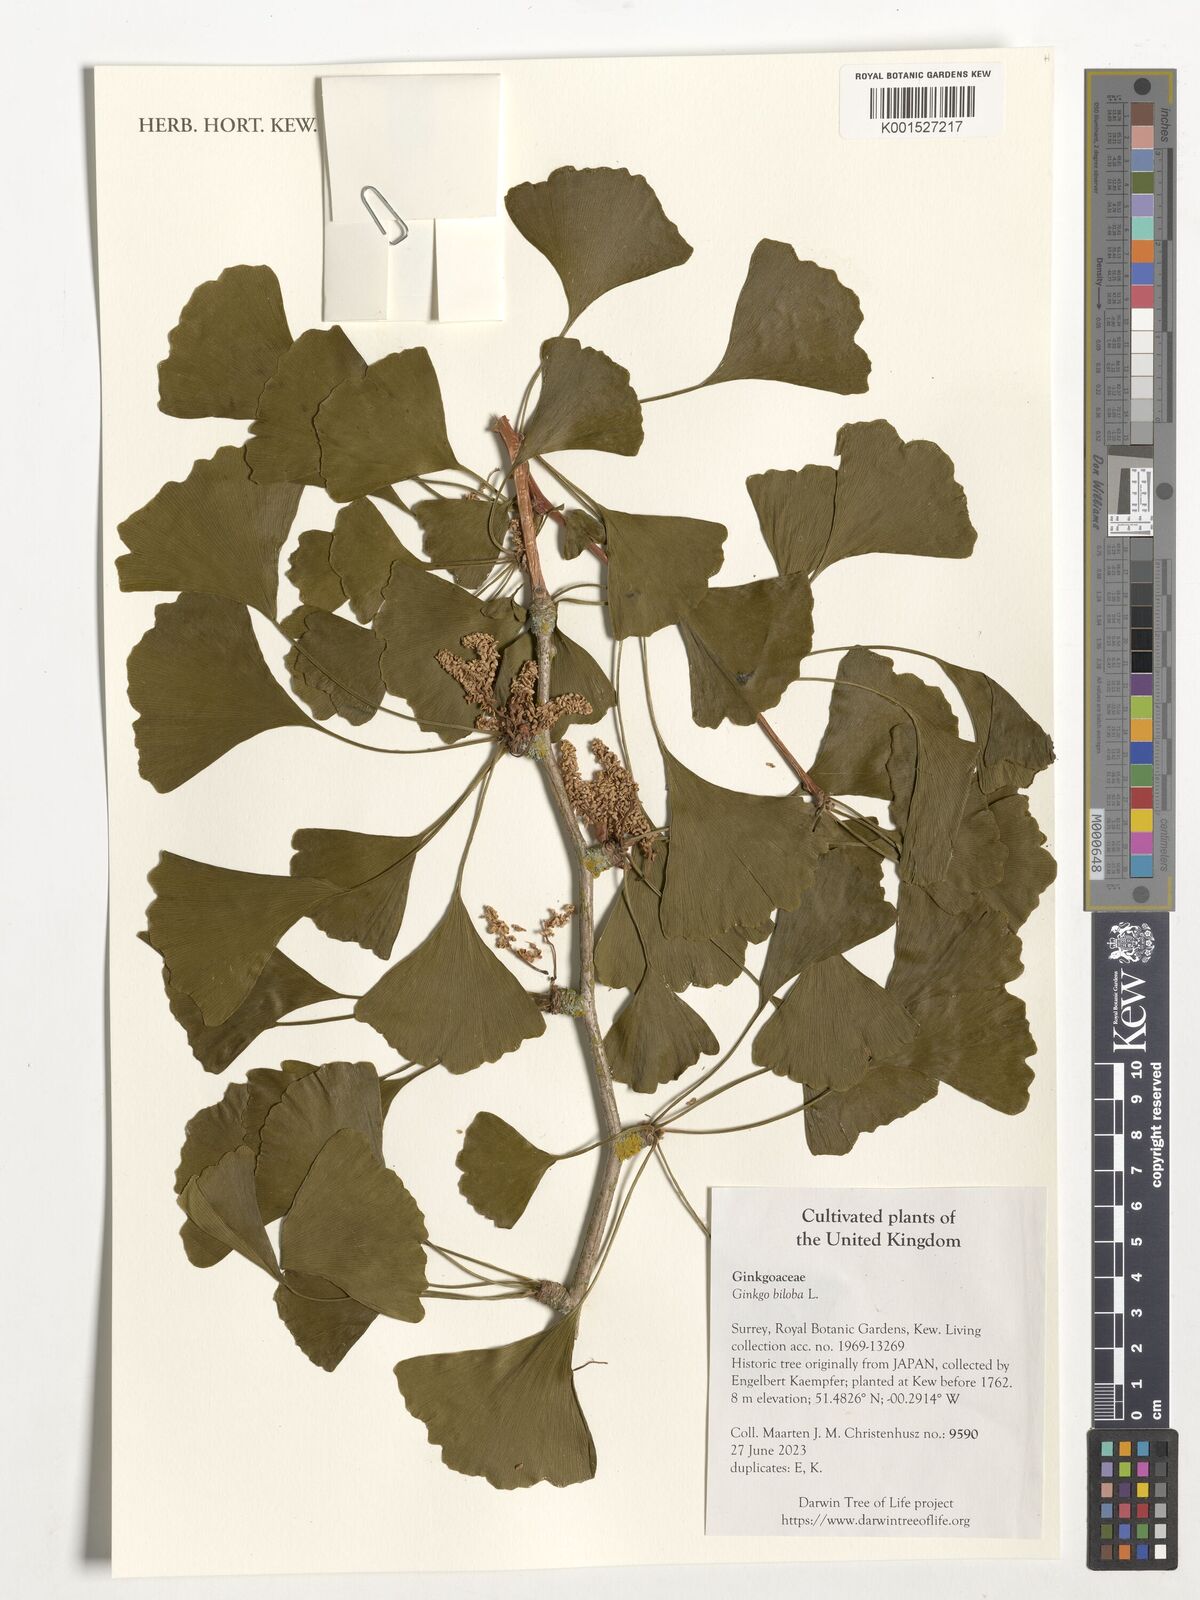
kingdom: Plantae
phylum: Tracheophyta
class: Ginkgoopsida
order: Ginkgoales
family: Ginkgoaceae
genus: Ginkgo
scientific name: Ginkgo biloba
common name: Ginkgo
